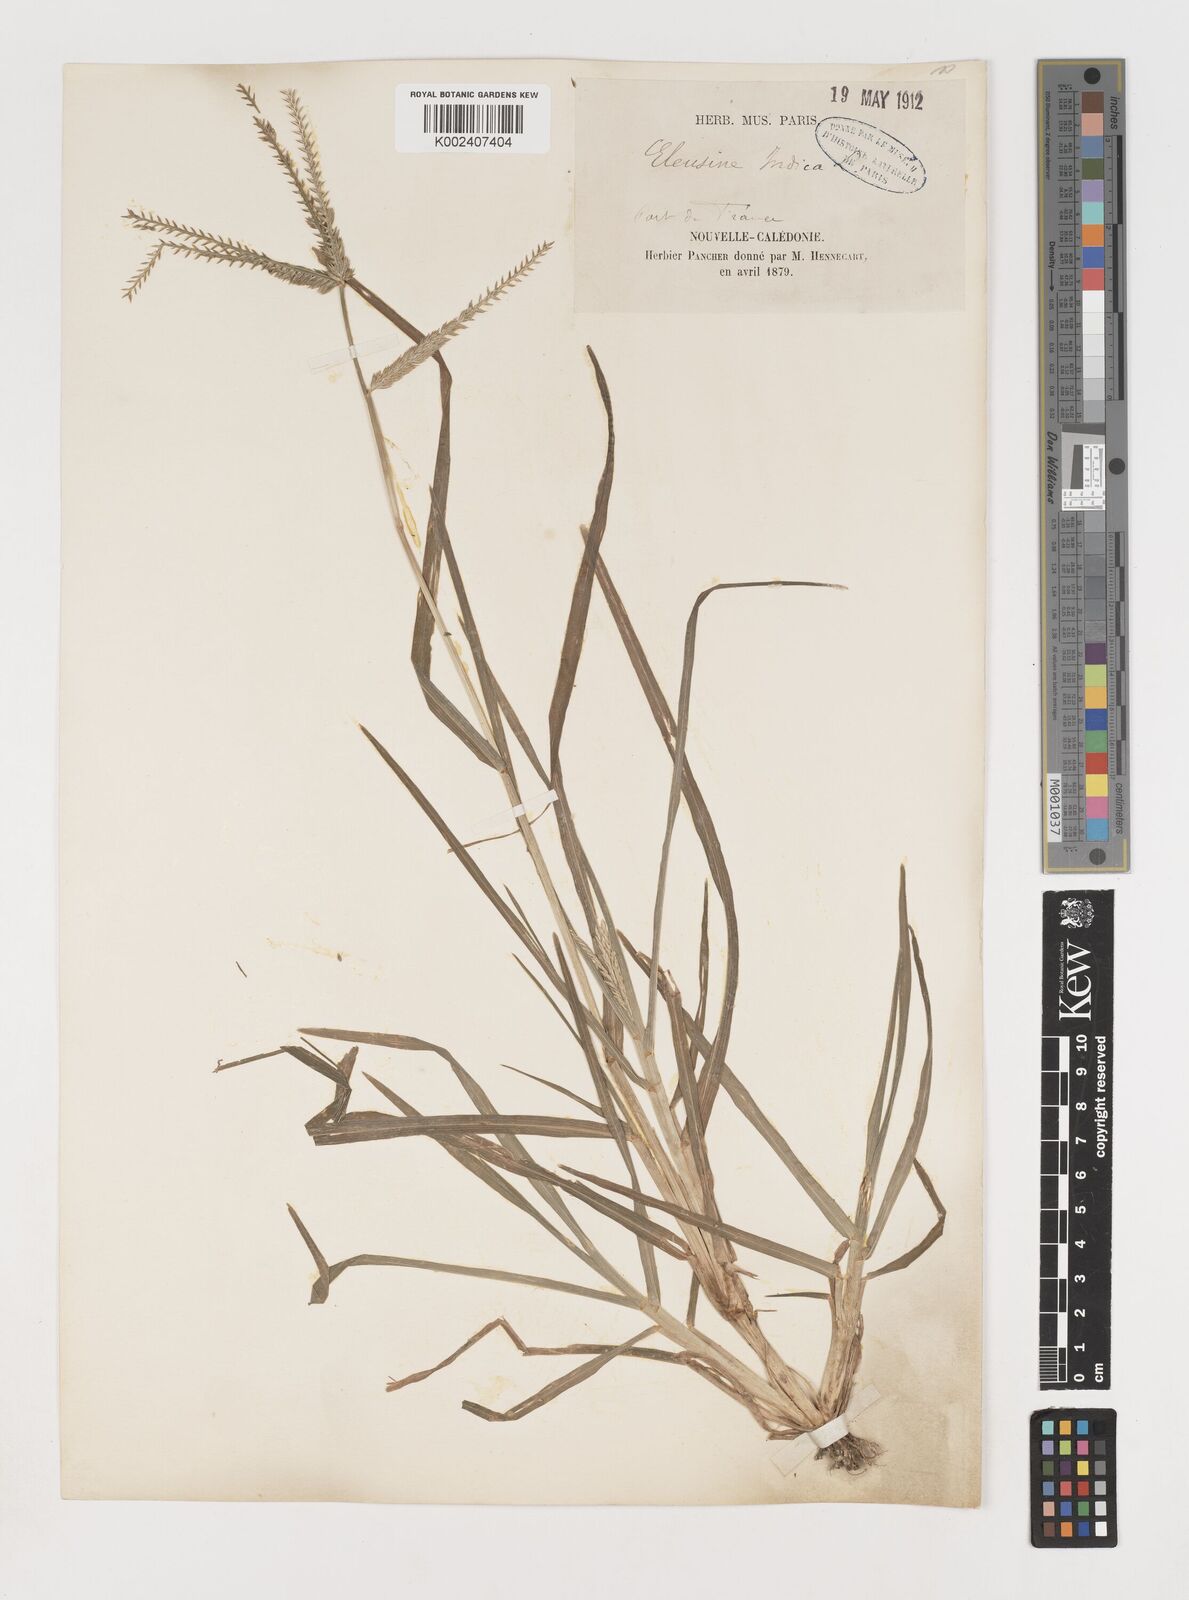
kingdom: Plantae
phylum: Tracheophyta
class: Liliopsida
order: Poales
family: Poaceae
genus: Eleusine
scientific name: Eleusine indica
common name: Yard-grass
